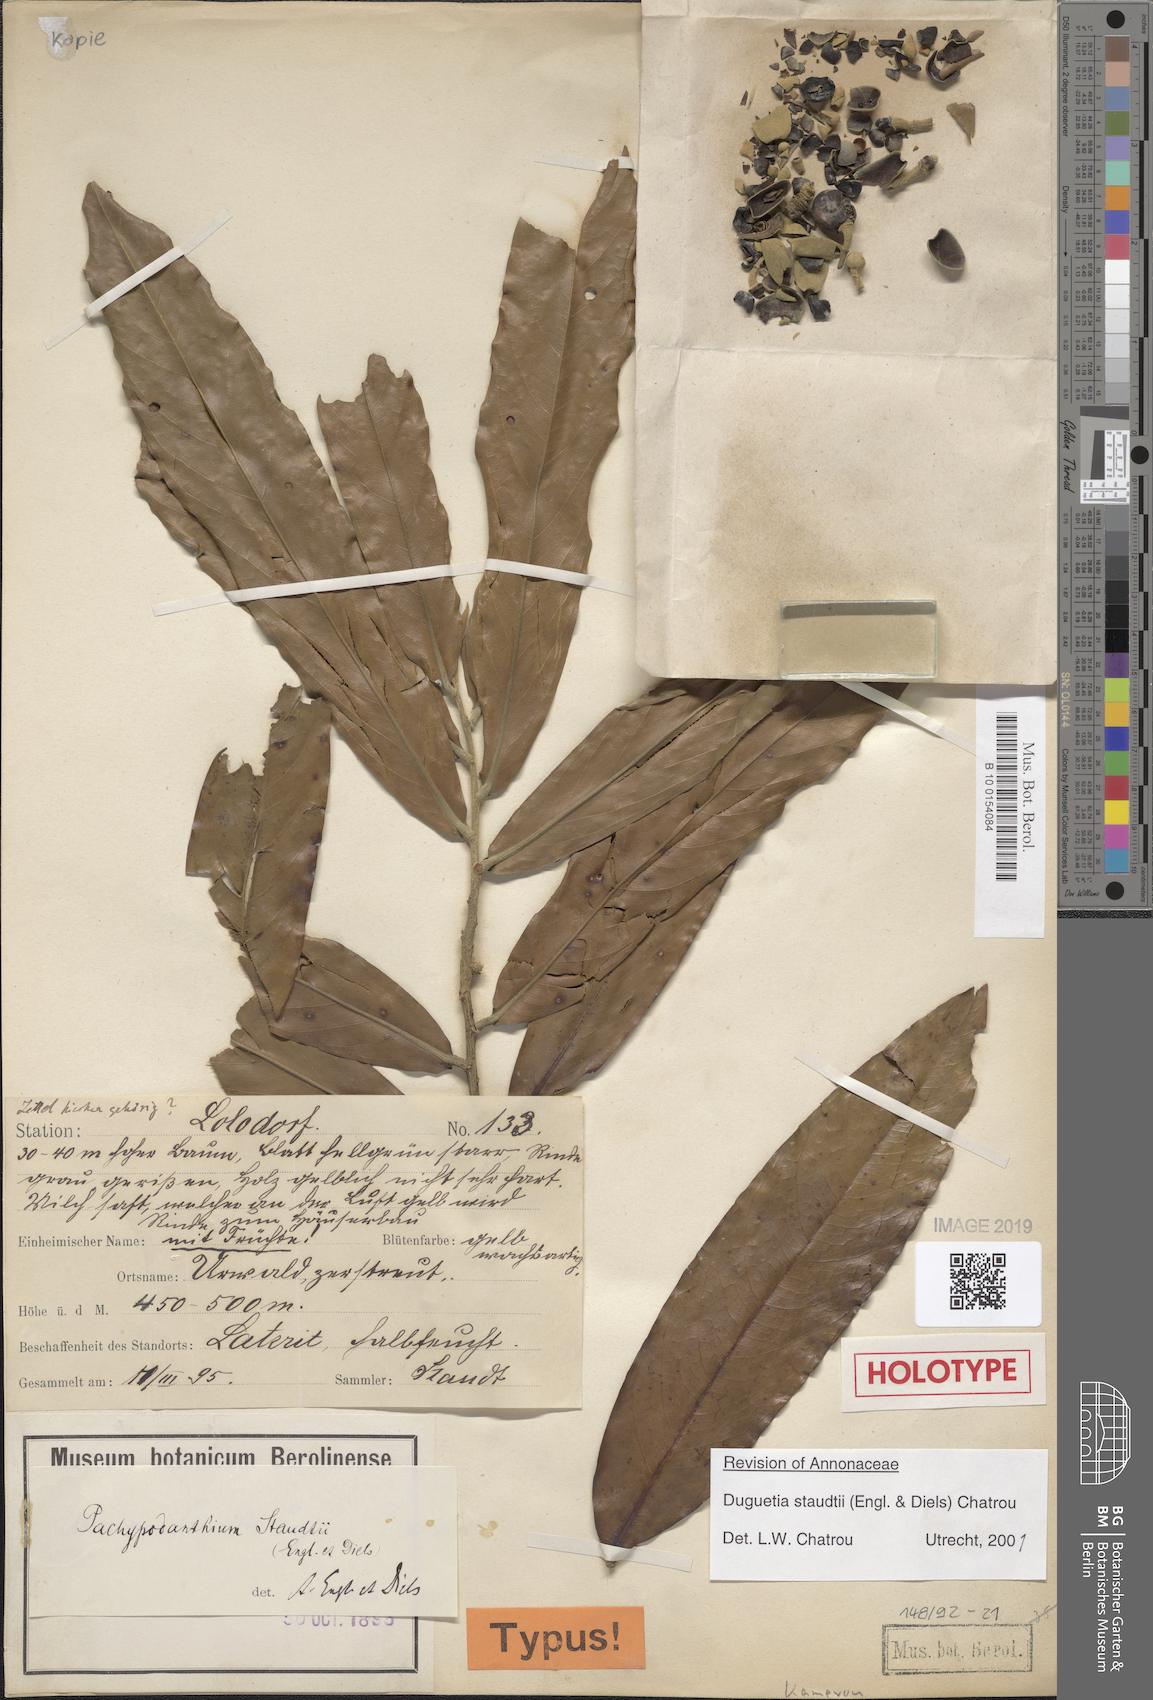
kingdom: Plantae
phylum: Tracheophyta
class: Magnoliopsida
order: Magnoliales
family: Annonaceae
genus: Duguetia
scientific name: Duguetia staudtii
